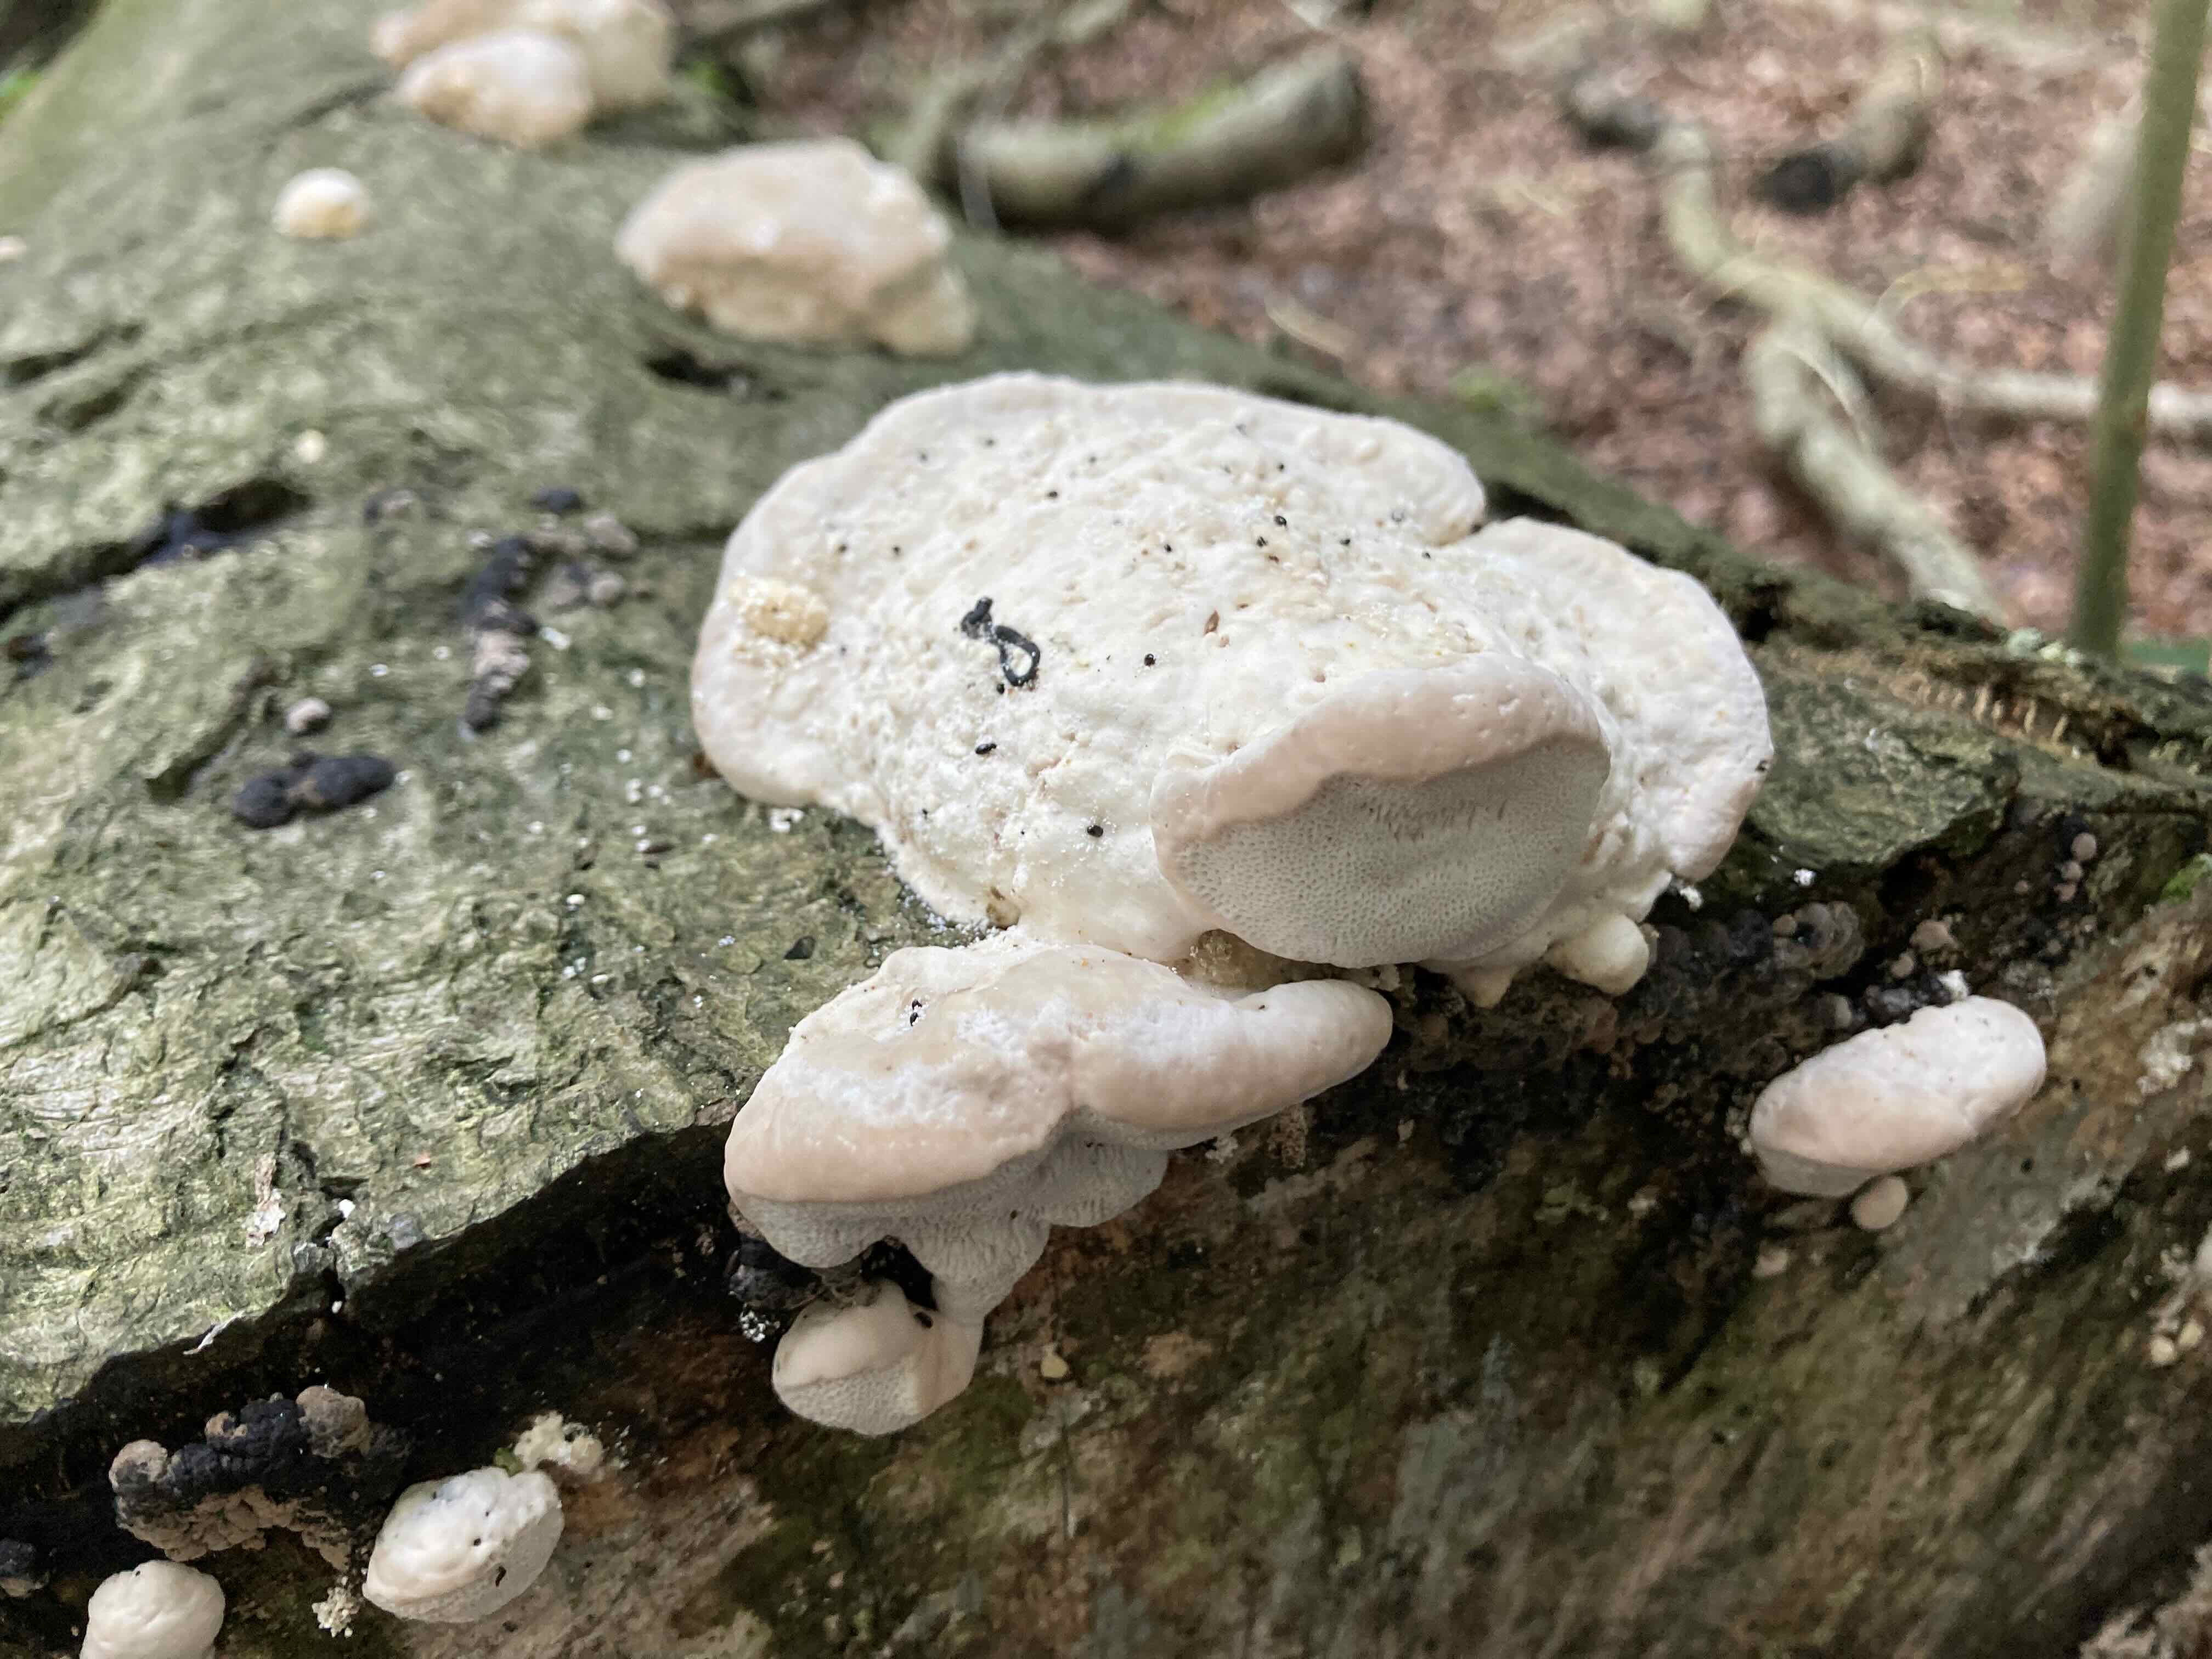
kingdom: Fungi
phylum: Basidiomycota
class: Agaricomycetes
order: Polyporales
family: Polyporaceae
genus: Trametes
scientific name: Trametes gibbosa
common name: puklet læderporesvamp
